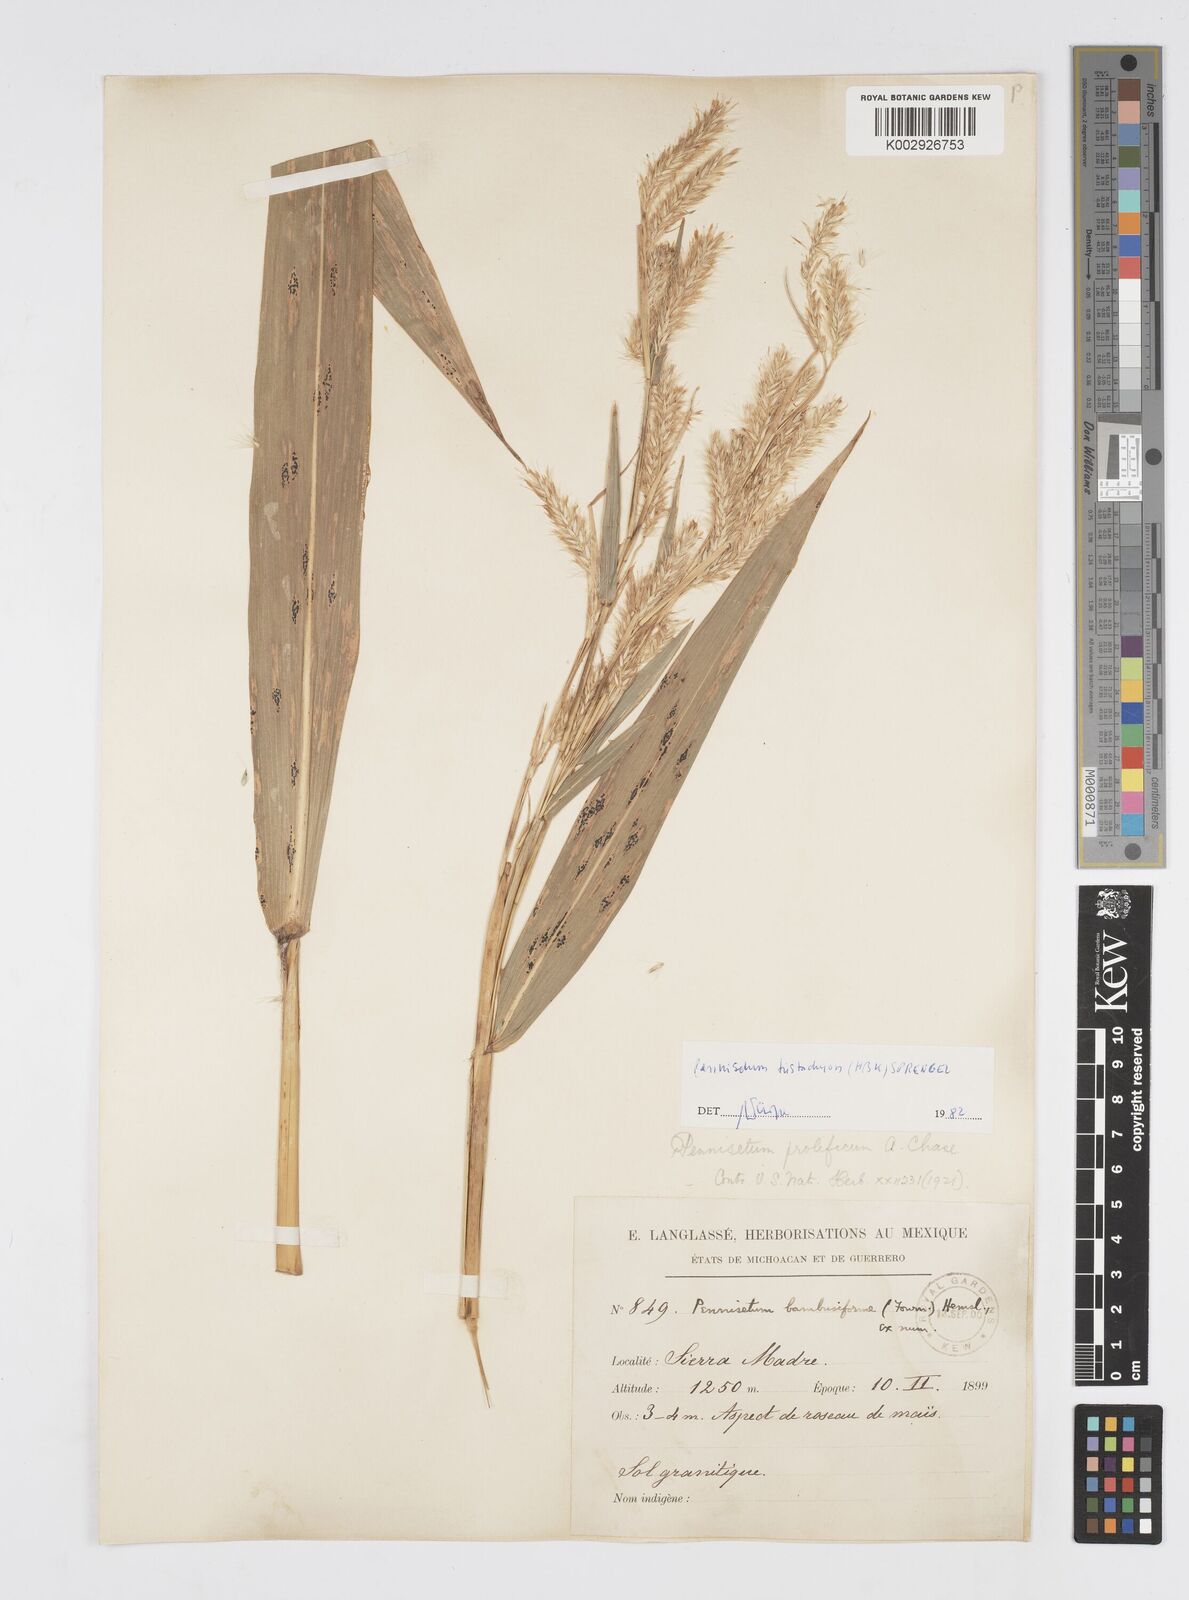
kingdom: Plantae
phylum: Tracheophyta
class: Liliopsida
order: Poales
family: Poaceae
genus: Cenchrus
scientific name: Cenchrus prolificus
